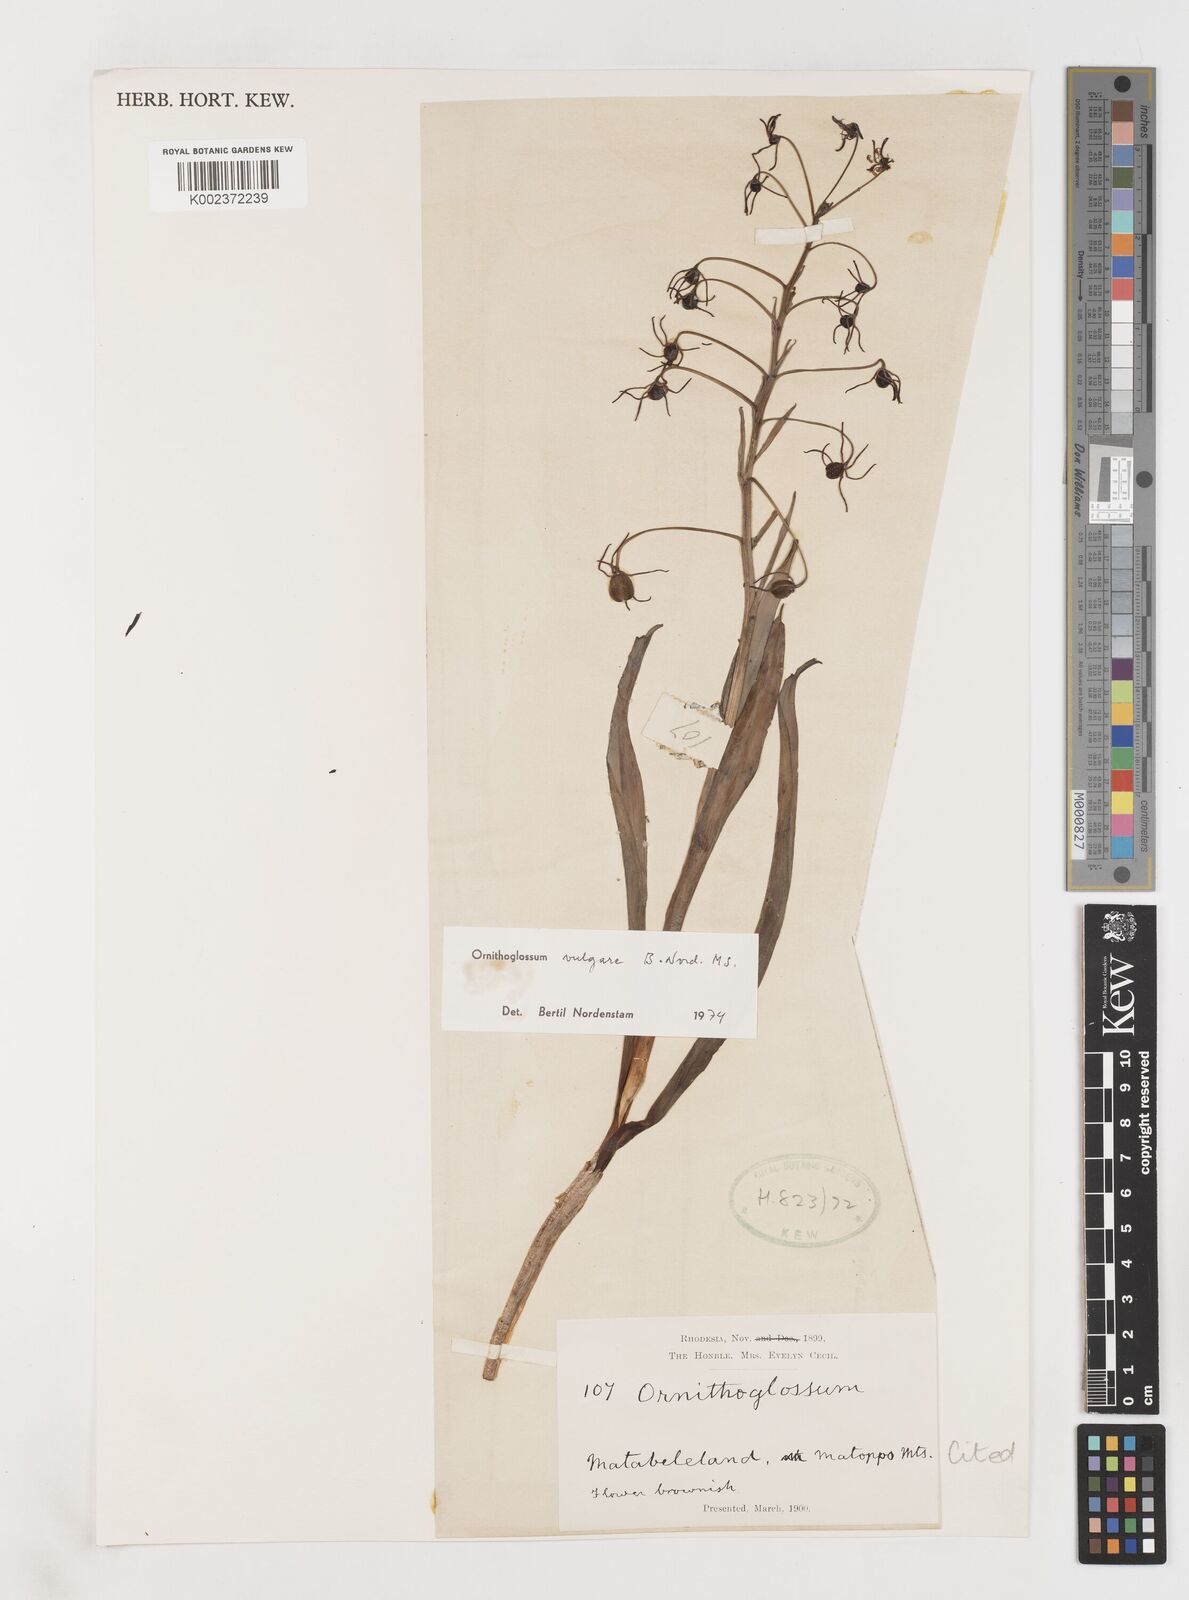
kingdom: Plantae
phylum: Tracheophyta
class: Liliopsida
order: Liliales
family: Colchicaceae
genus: Ornithoglossum
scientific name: Ornithoglossum vulgare
